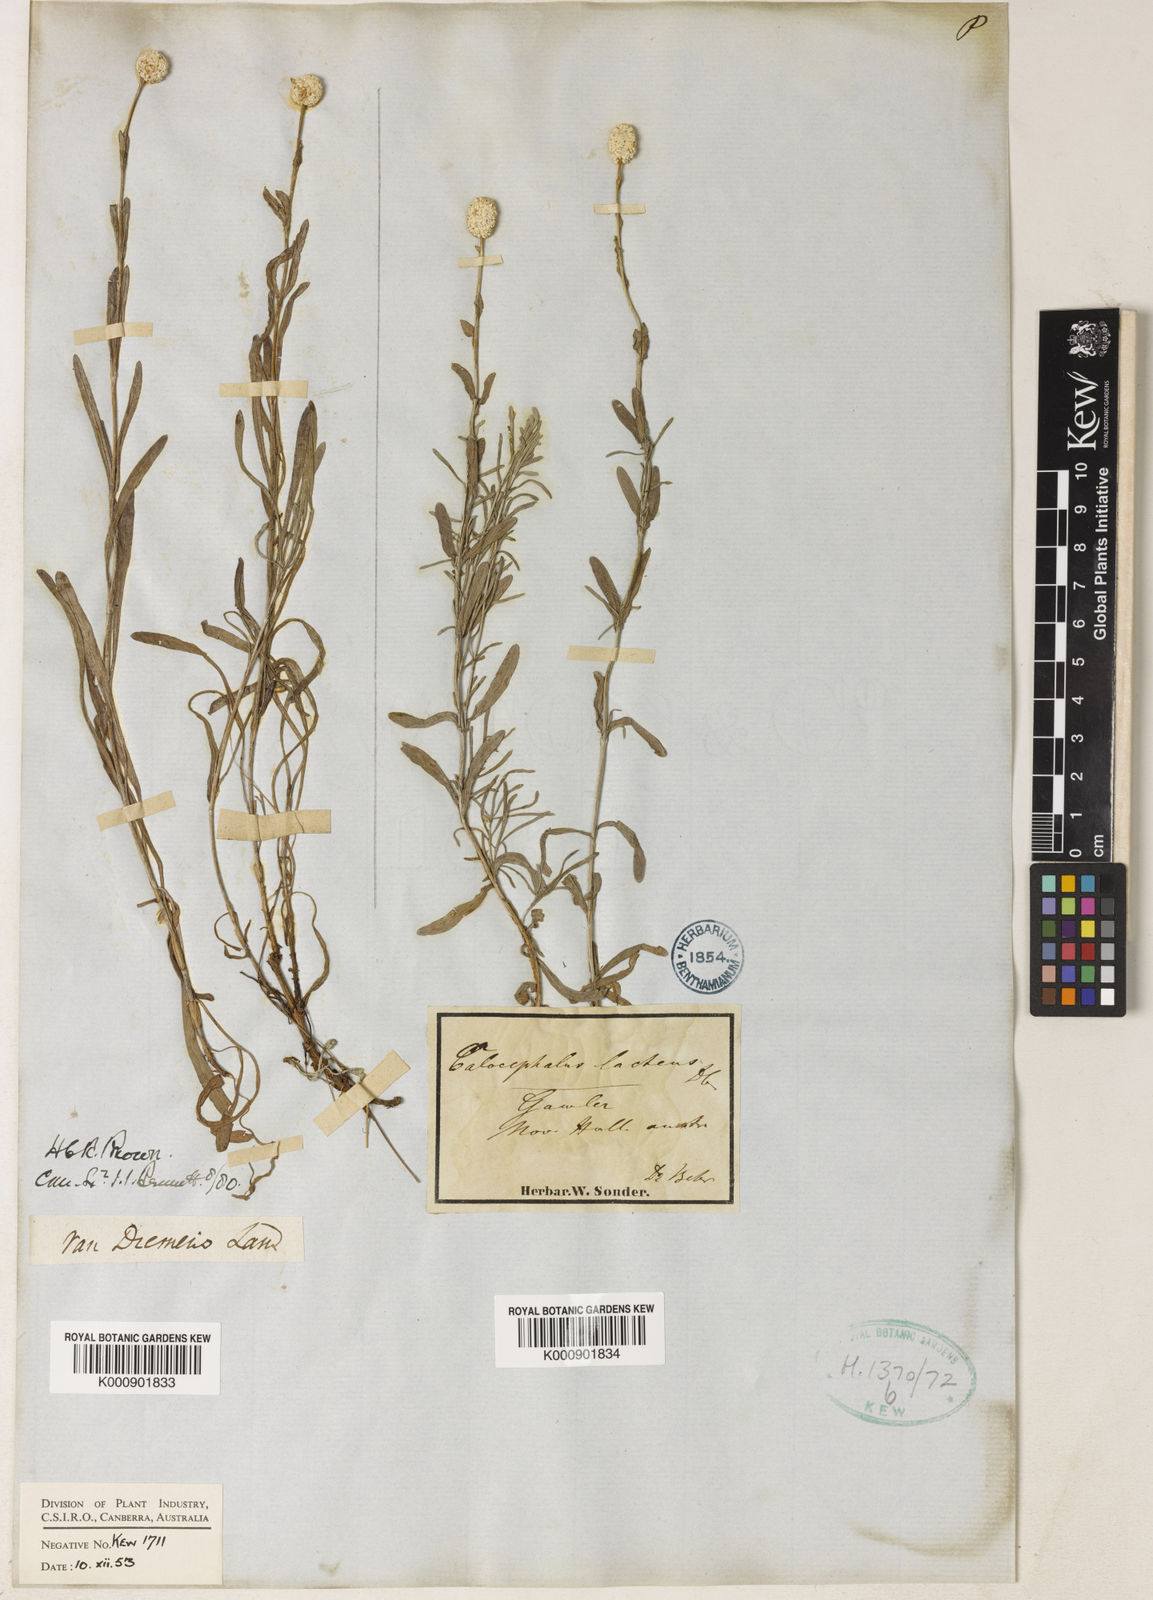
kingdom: Plantae
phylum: Tracheophyta
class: Magnoliopsida
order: Asterales
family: Asteraceae
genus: Calocephalus
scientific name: Calocephalus
